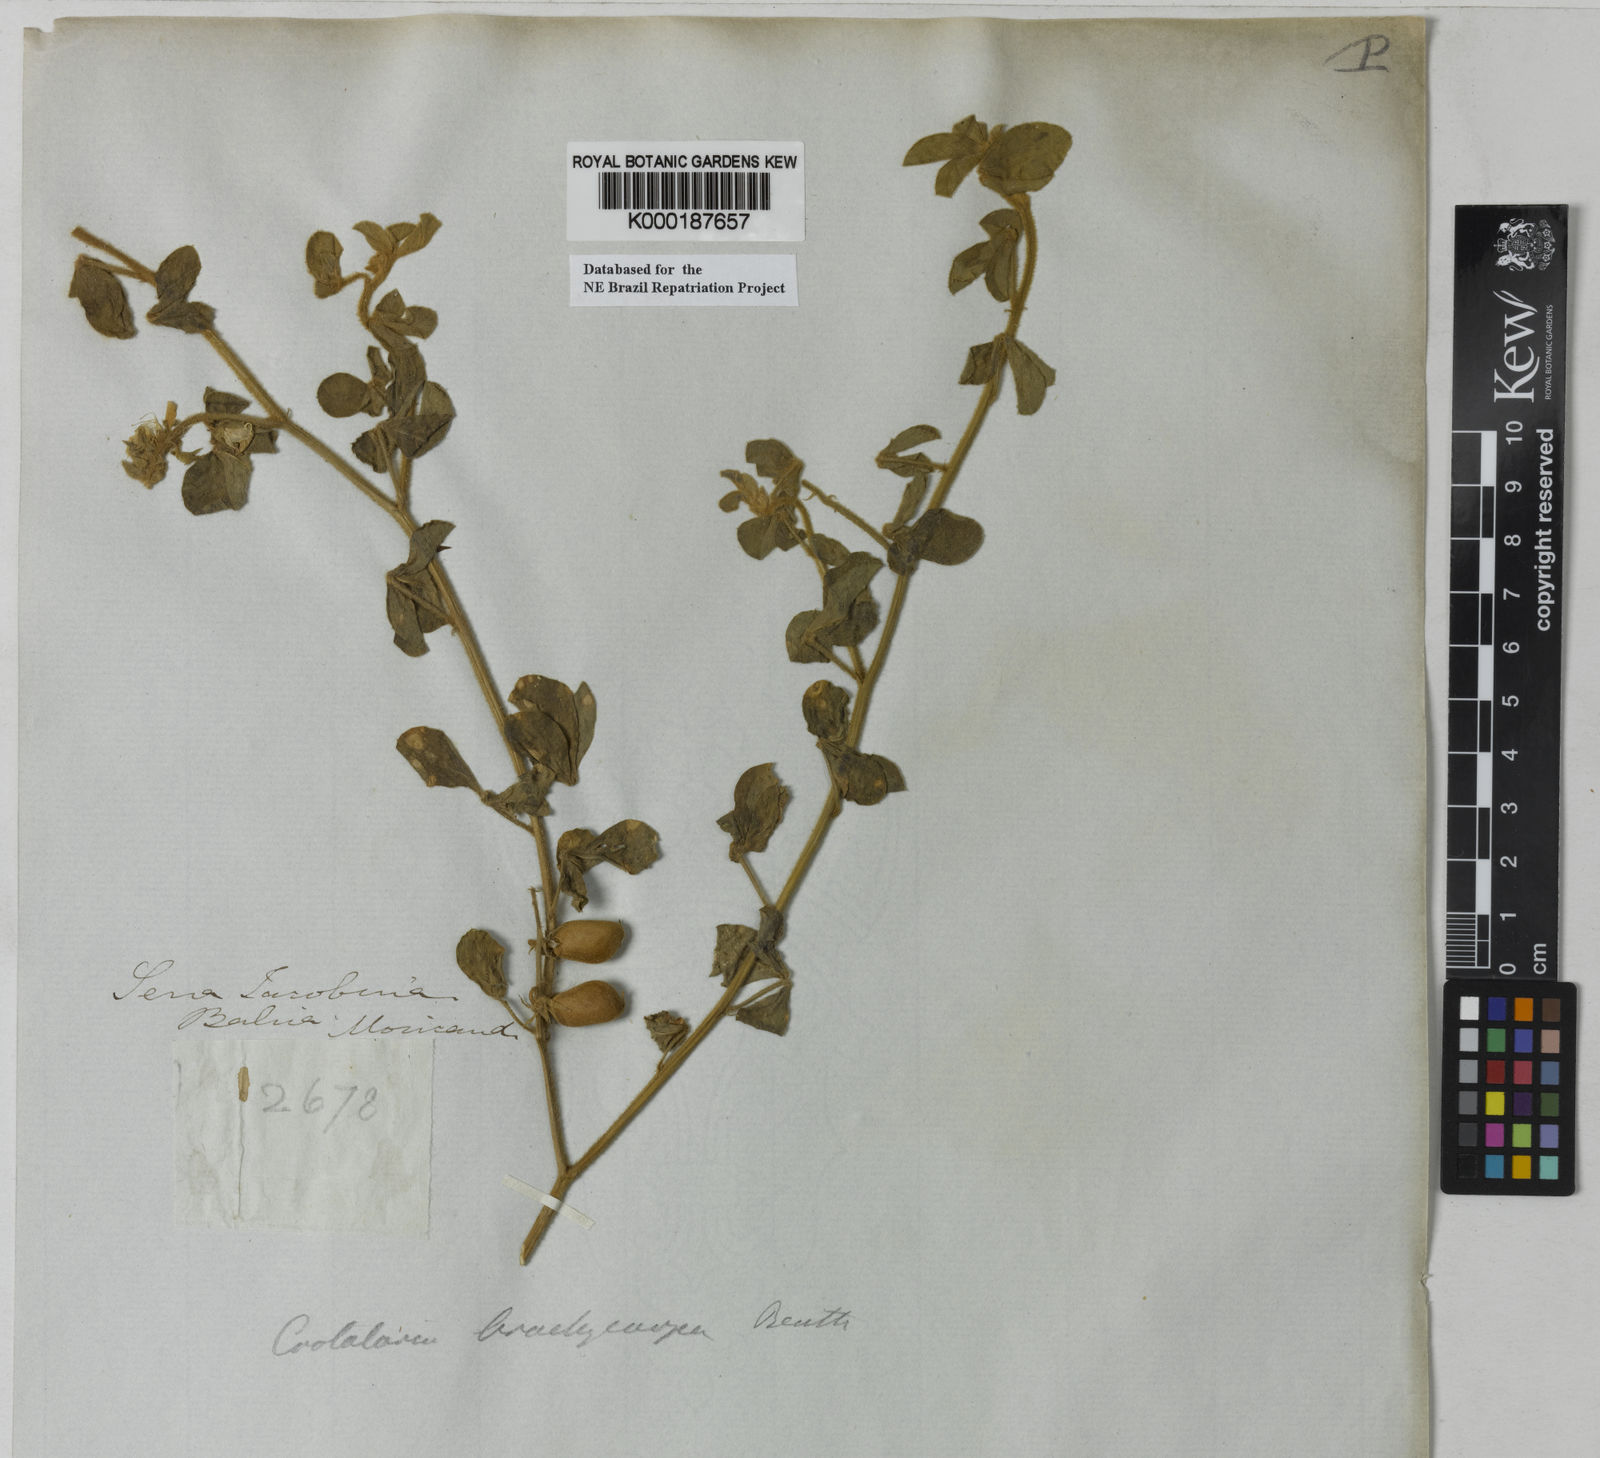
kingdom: Plantae
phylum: Tracheophyta
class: Magnoliopsida
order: Fabales
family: Fabaceae
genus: Crotalaria
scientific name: Crotalaria brachycarpa
